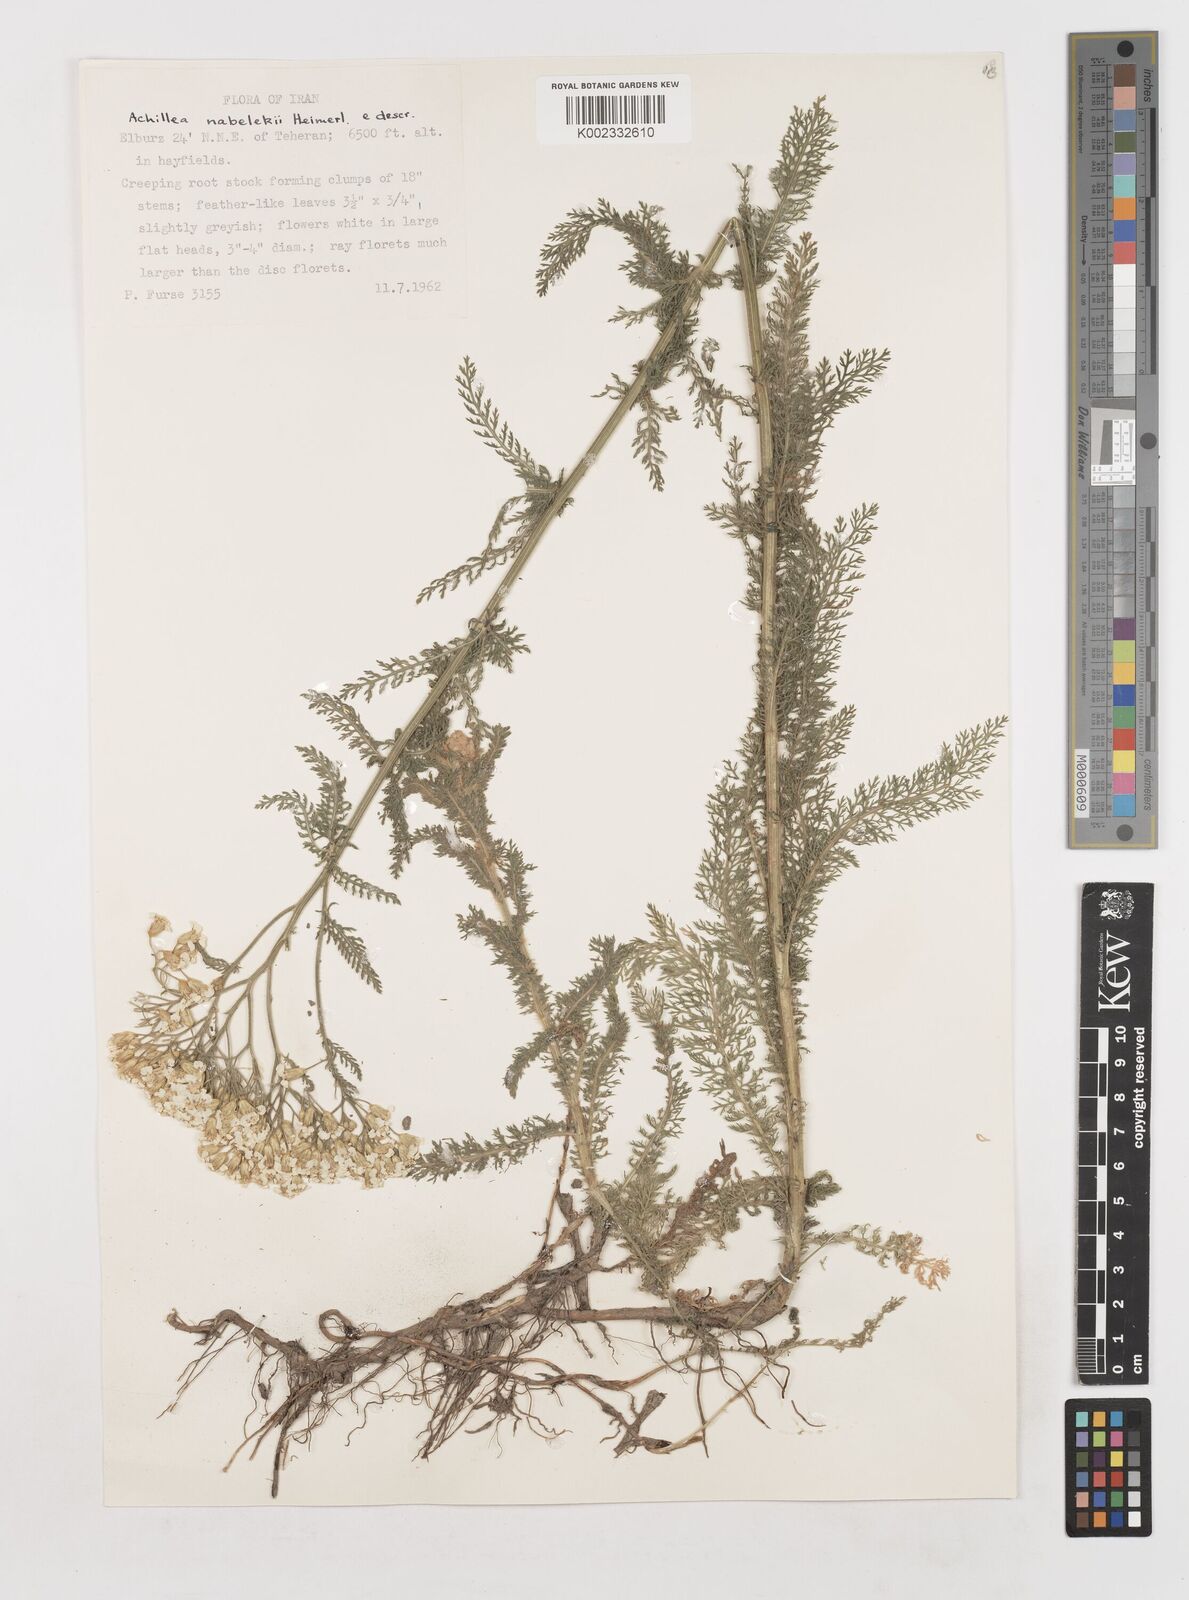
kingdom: Plantae
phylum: Tracheophyta
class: Magnoliopsida
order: Asterales
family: Asteraceae
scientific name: Asteraceae
